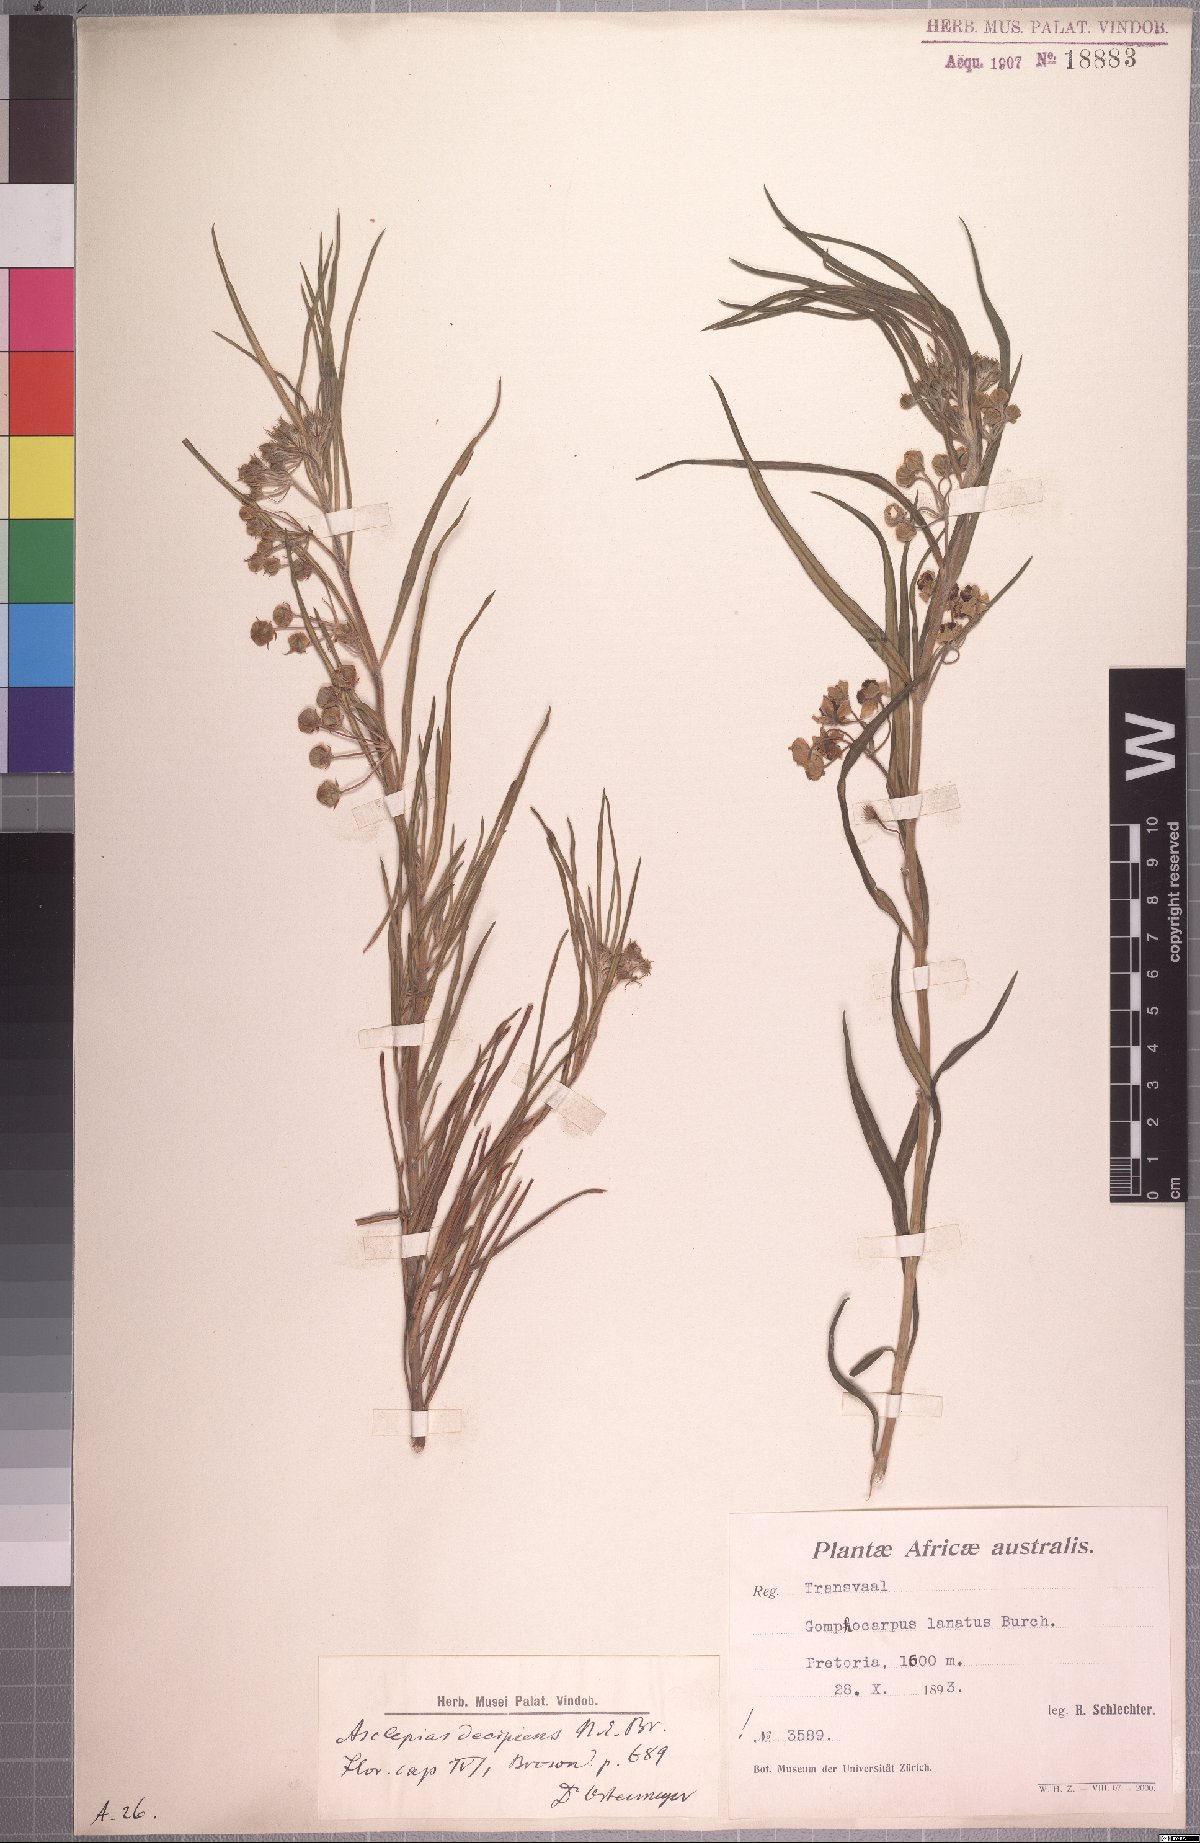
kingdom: Plantae
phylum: Tracheophyta
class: Magnoliopsida
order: Gentianales
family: Apocynaceae
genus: Gomphocarpus
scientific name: Gomphocarpus fruticosus
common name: Milkweed
